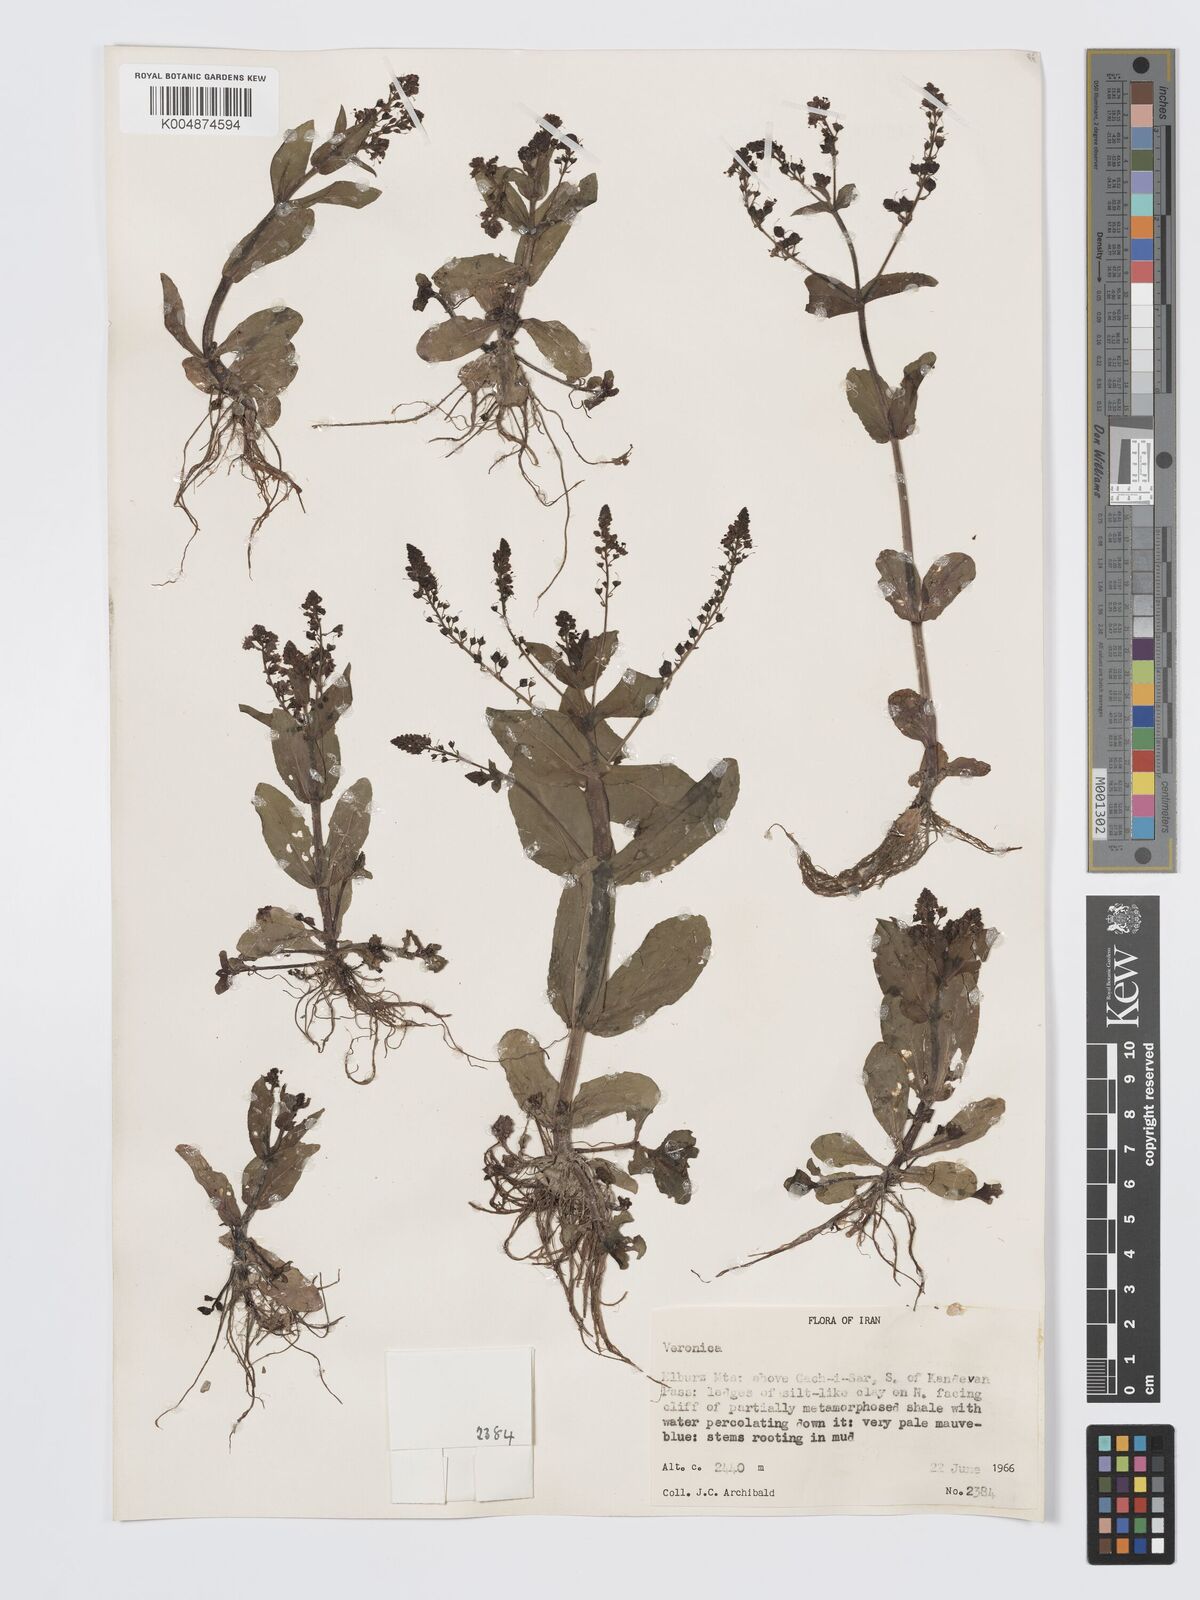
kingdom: Plantae
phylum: Tracheophyta
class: Magnoliopsida
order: Lamiales
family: Plantaginaceae
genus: Veronica
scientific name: Veronica
